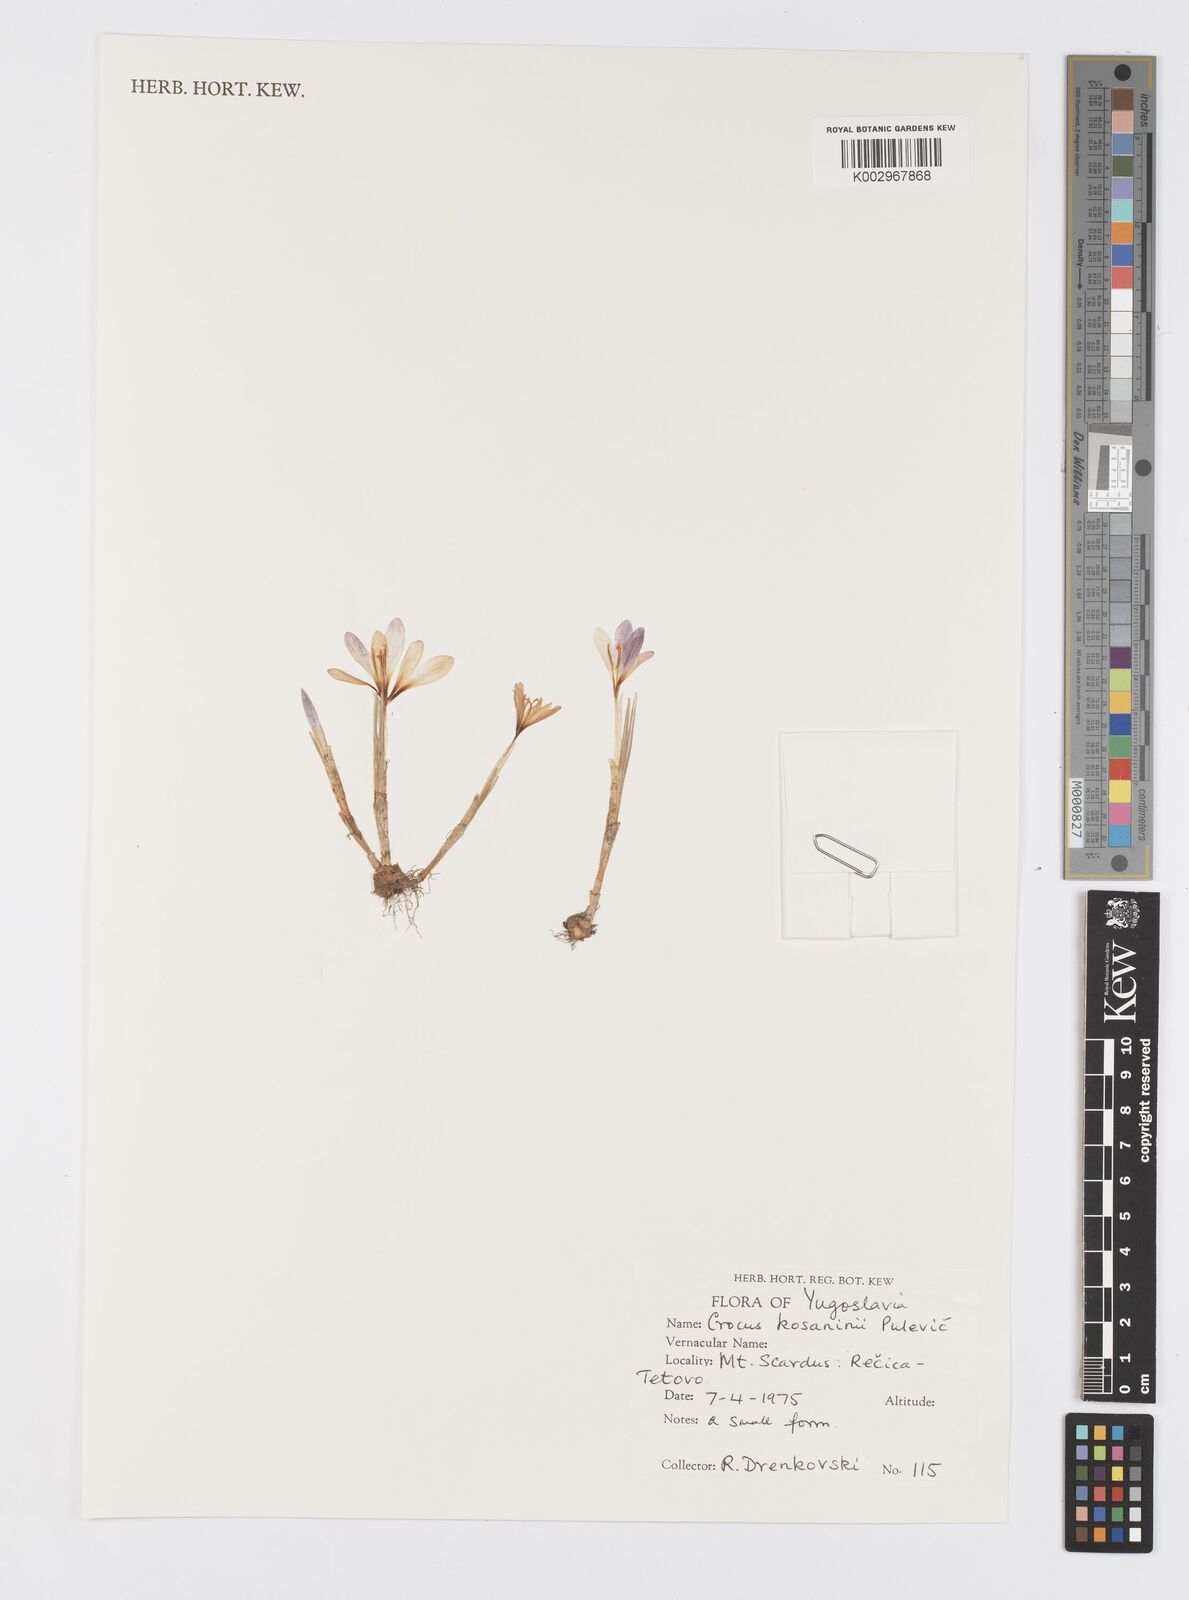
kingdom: Plantae
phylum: Tracheophyta
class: Liliopsida
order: Asparagales
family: Iridaceae
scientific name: Iridaceae
